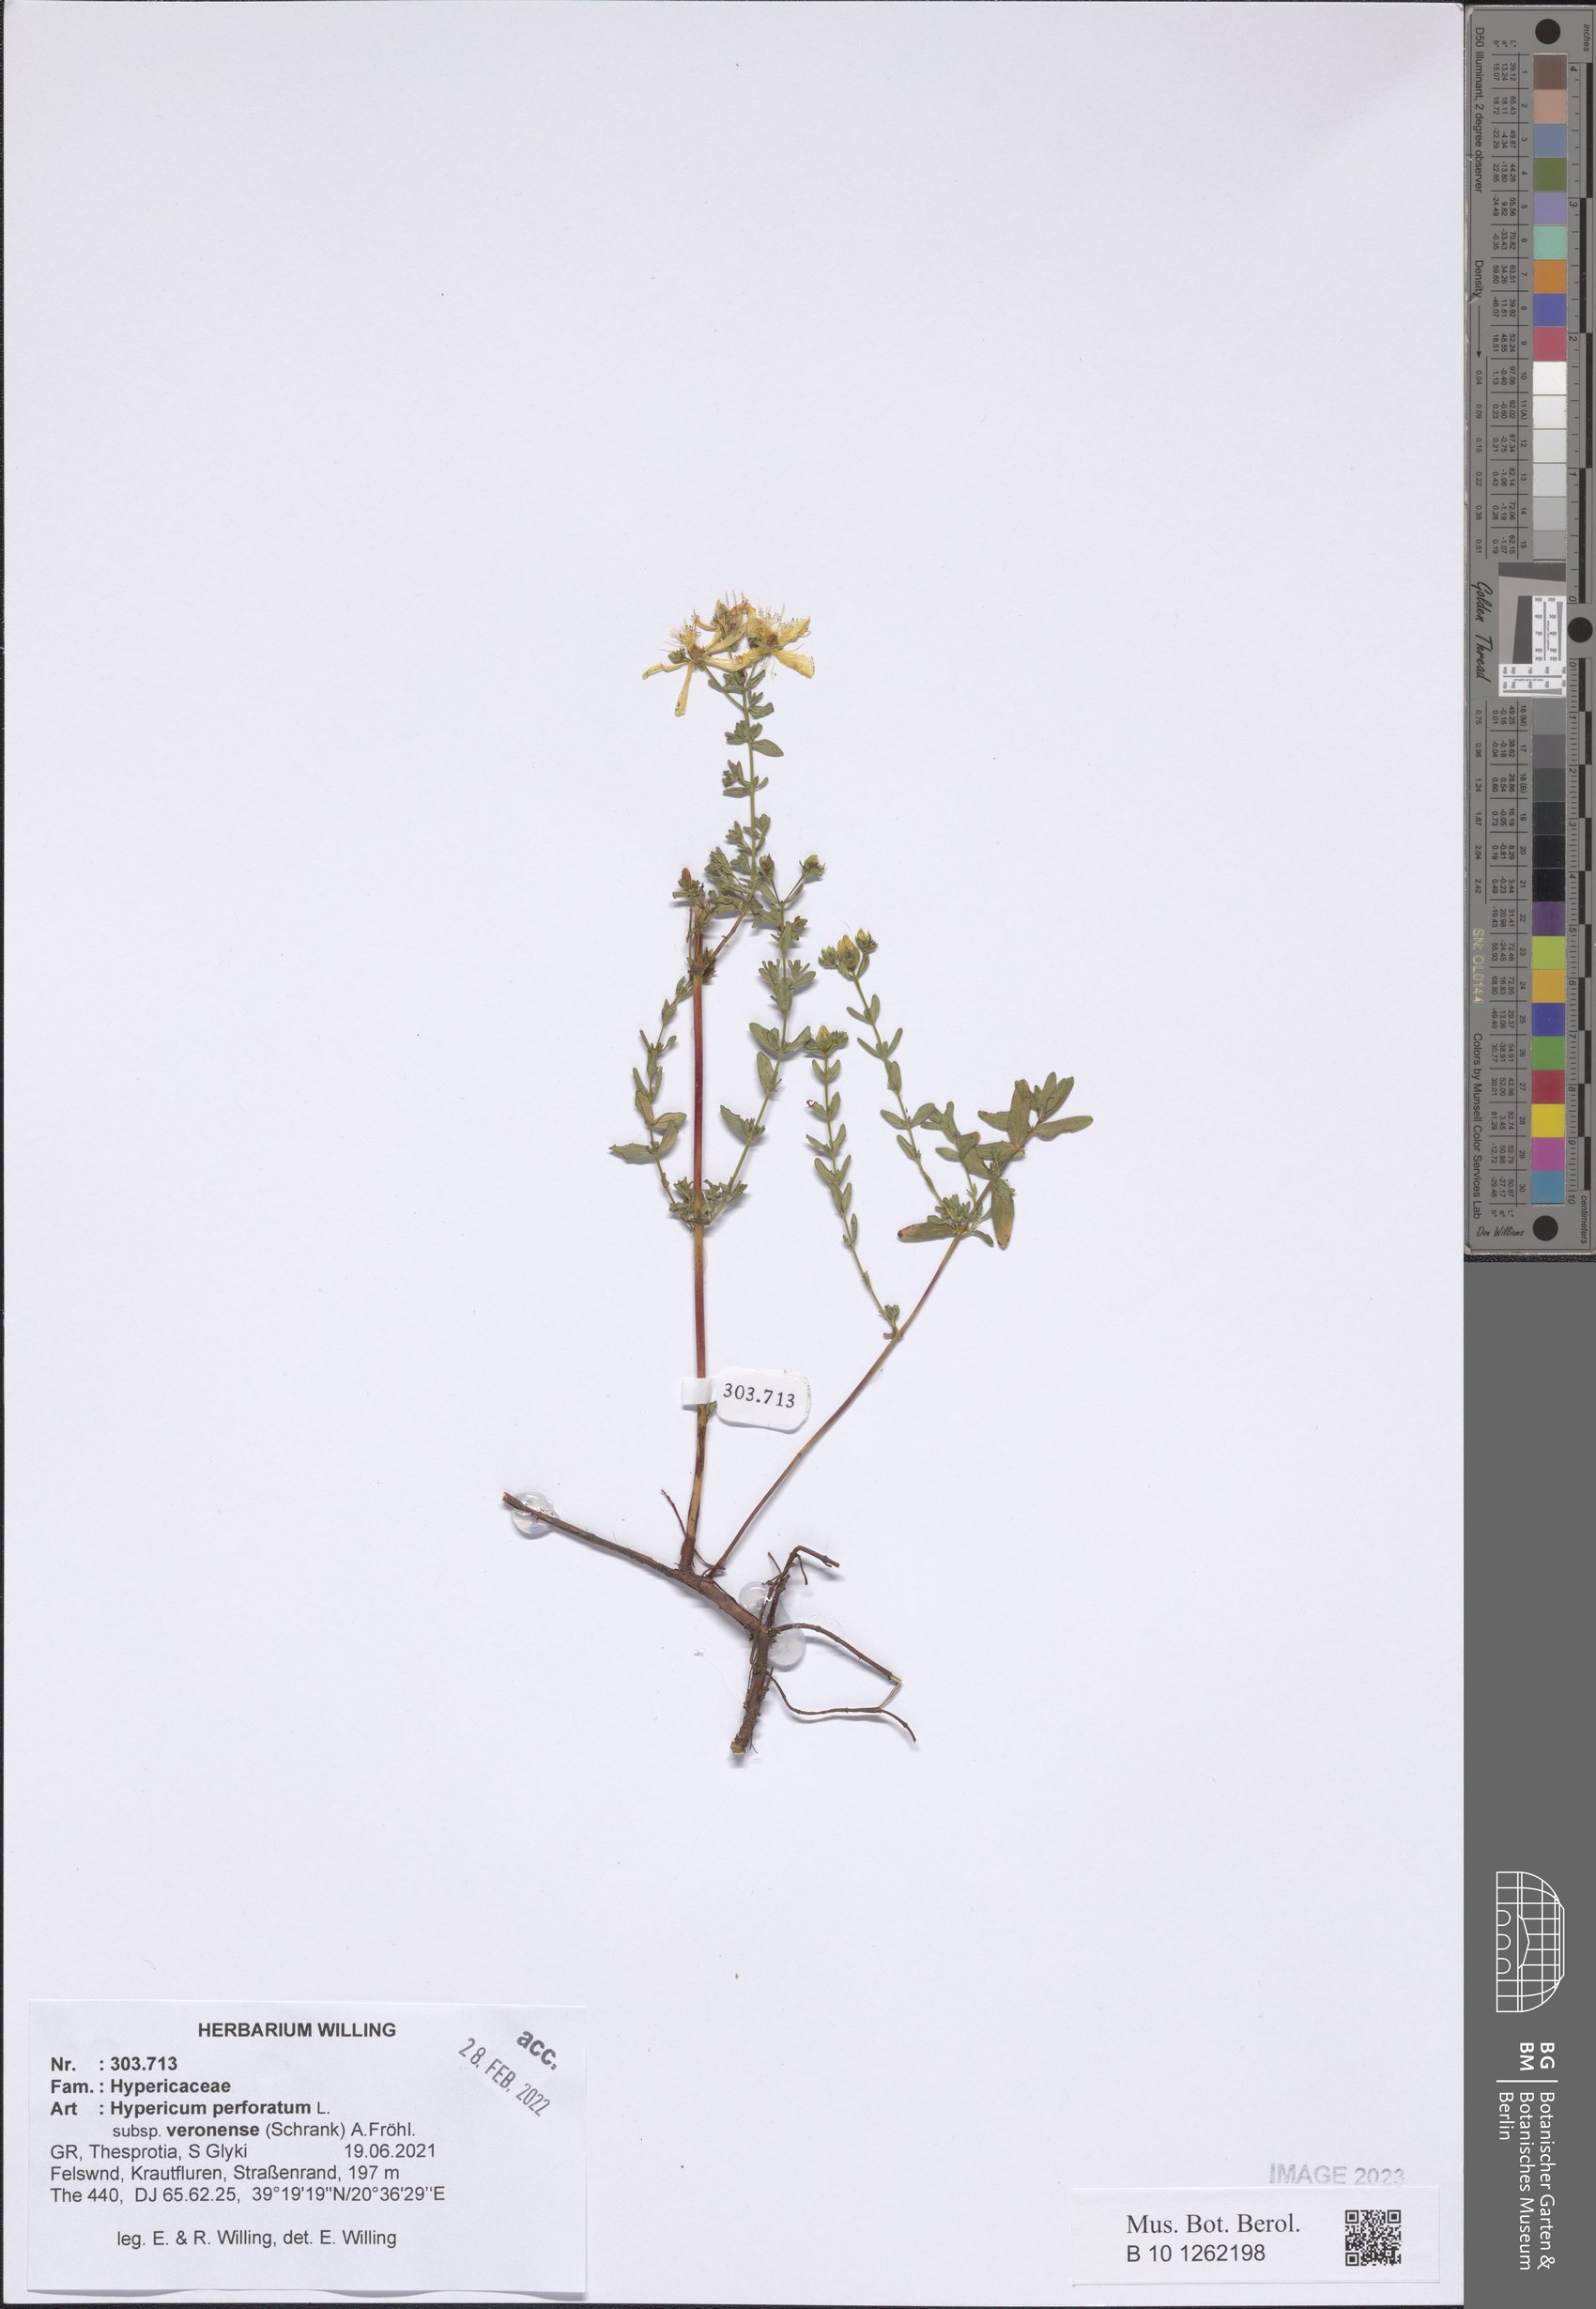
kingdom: Plantae
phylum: Tracheophyta
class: Magnoliopsida
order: Malpighiales
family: Hypericaceae
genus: Hypericum
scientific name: Hypericum veronense
